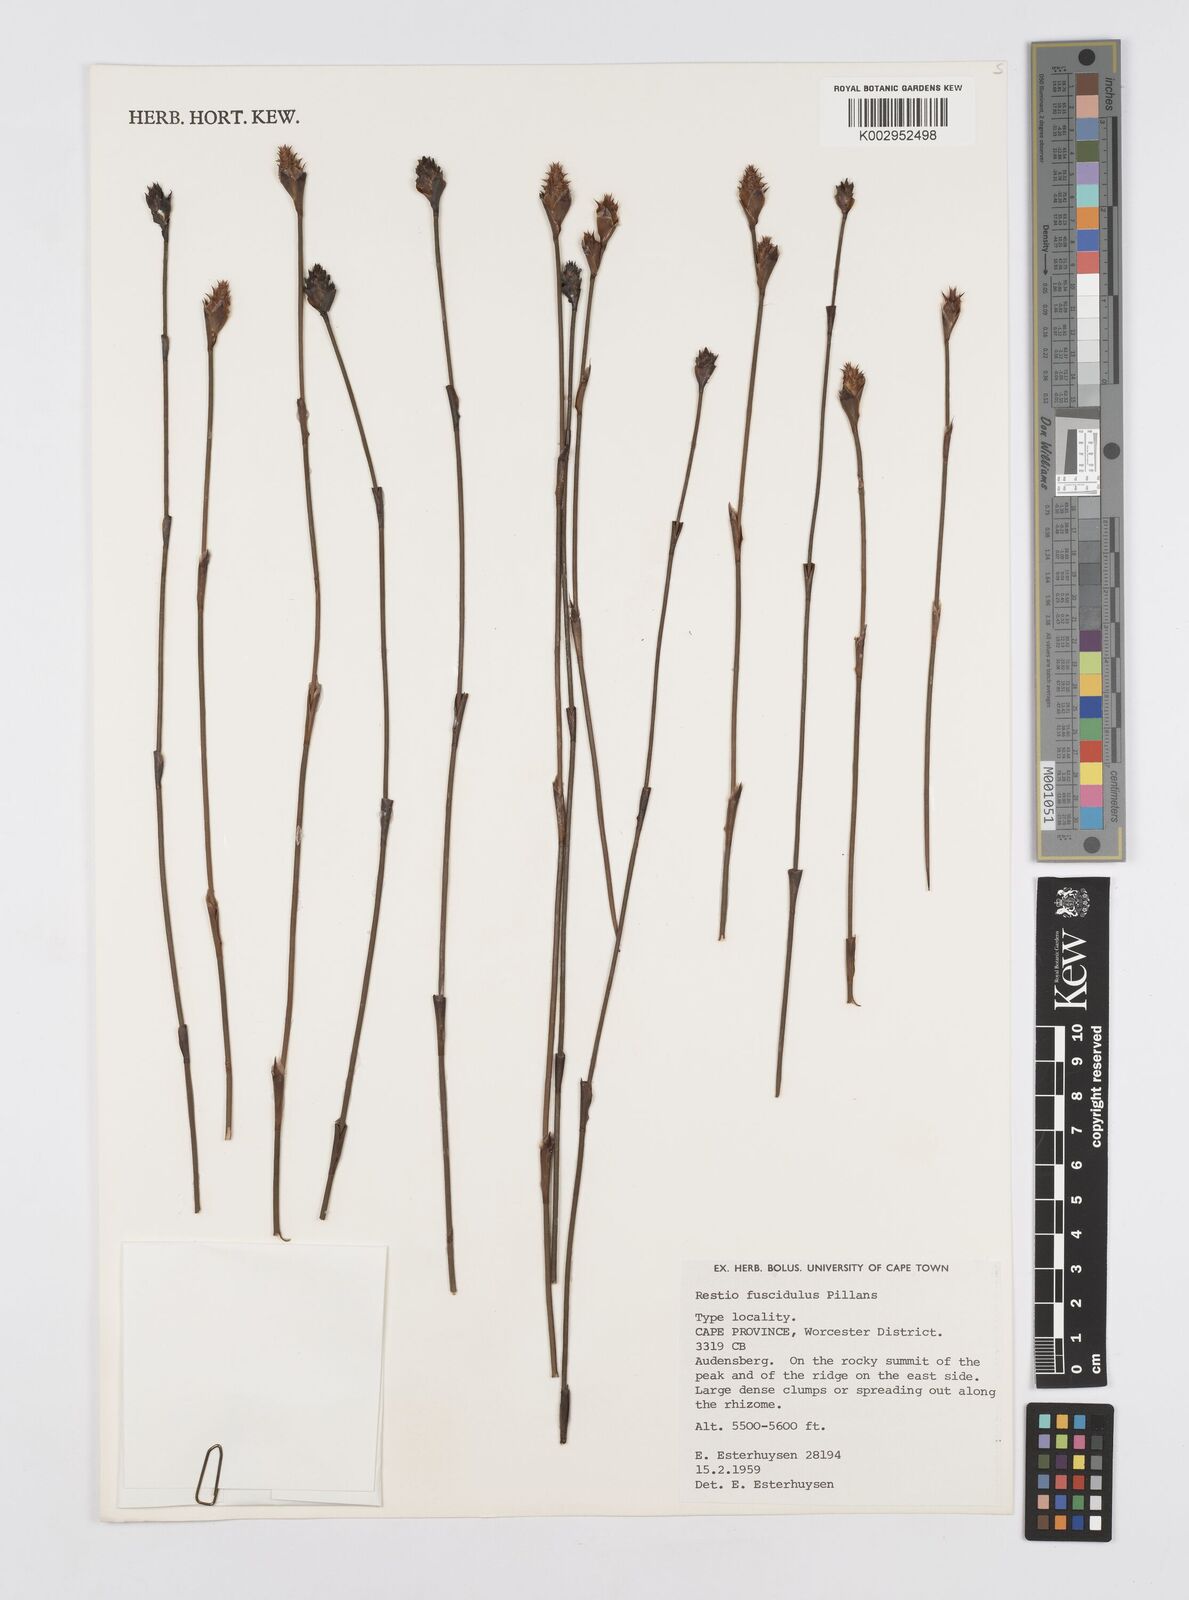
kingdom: Plantae
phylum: Tracheophyta
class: Liliopsida
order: Poales
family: Restionaceae
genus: Restio
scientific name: Restio fuscidulus
